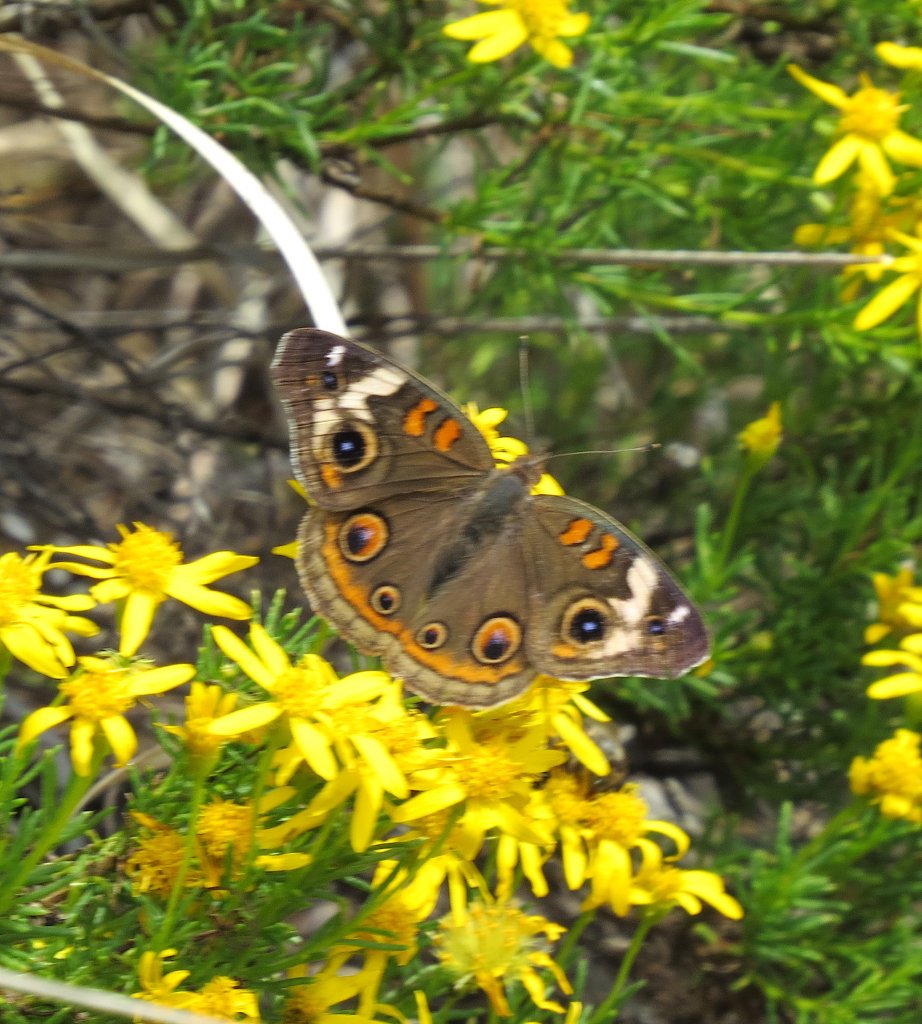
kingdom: Animalia
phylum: Arthropoda
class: Insecta
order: Lepidoptera
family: Nymphalidae
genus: Junonia
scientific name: Junonia coenia
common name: Common Buckeye
